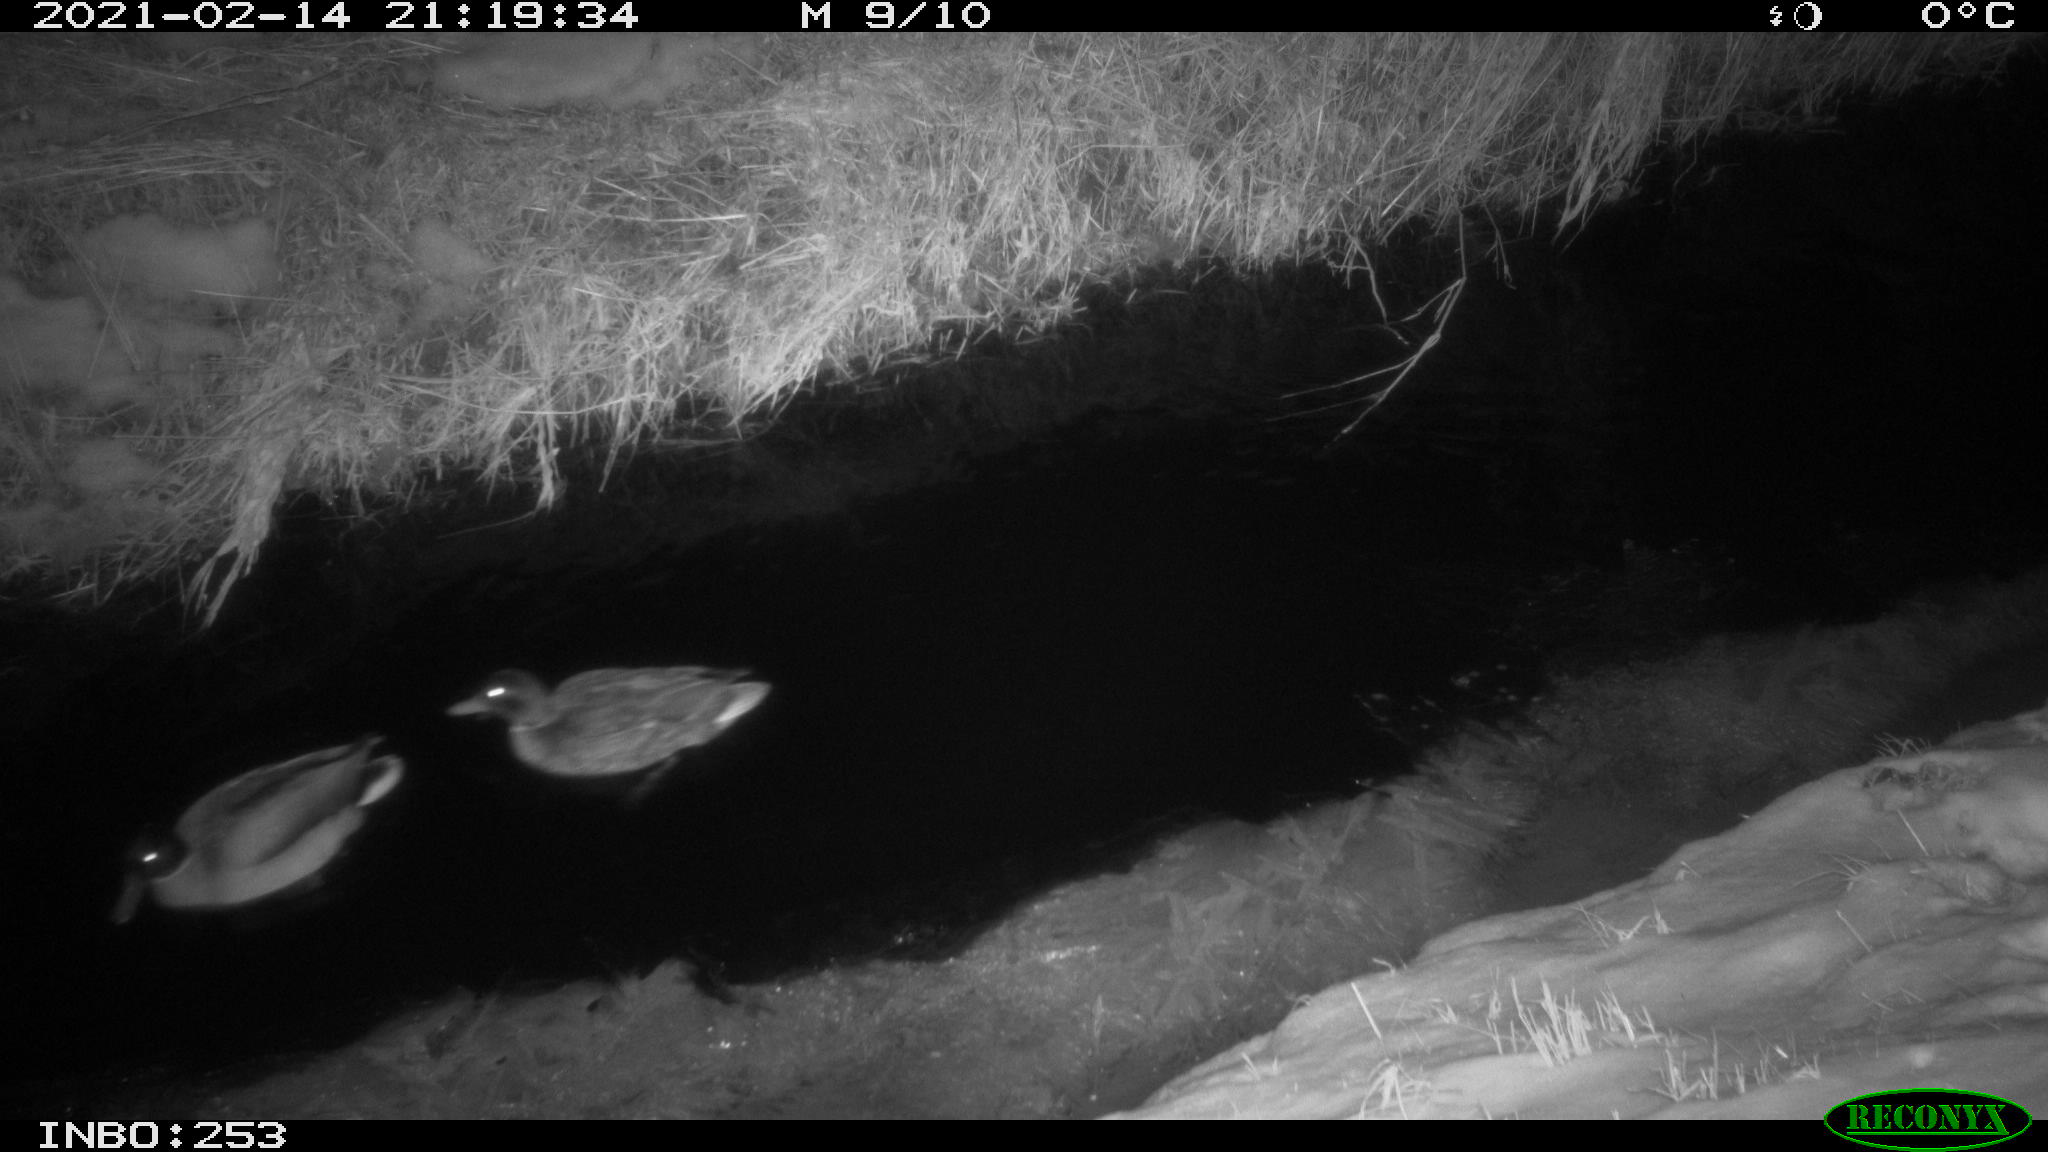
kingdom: Animalia
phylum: Chordata
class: Aves
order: Anseriformes
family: Anatidae
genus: Anas
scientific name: Anas platyrhynchos
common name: Mallard
